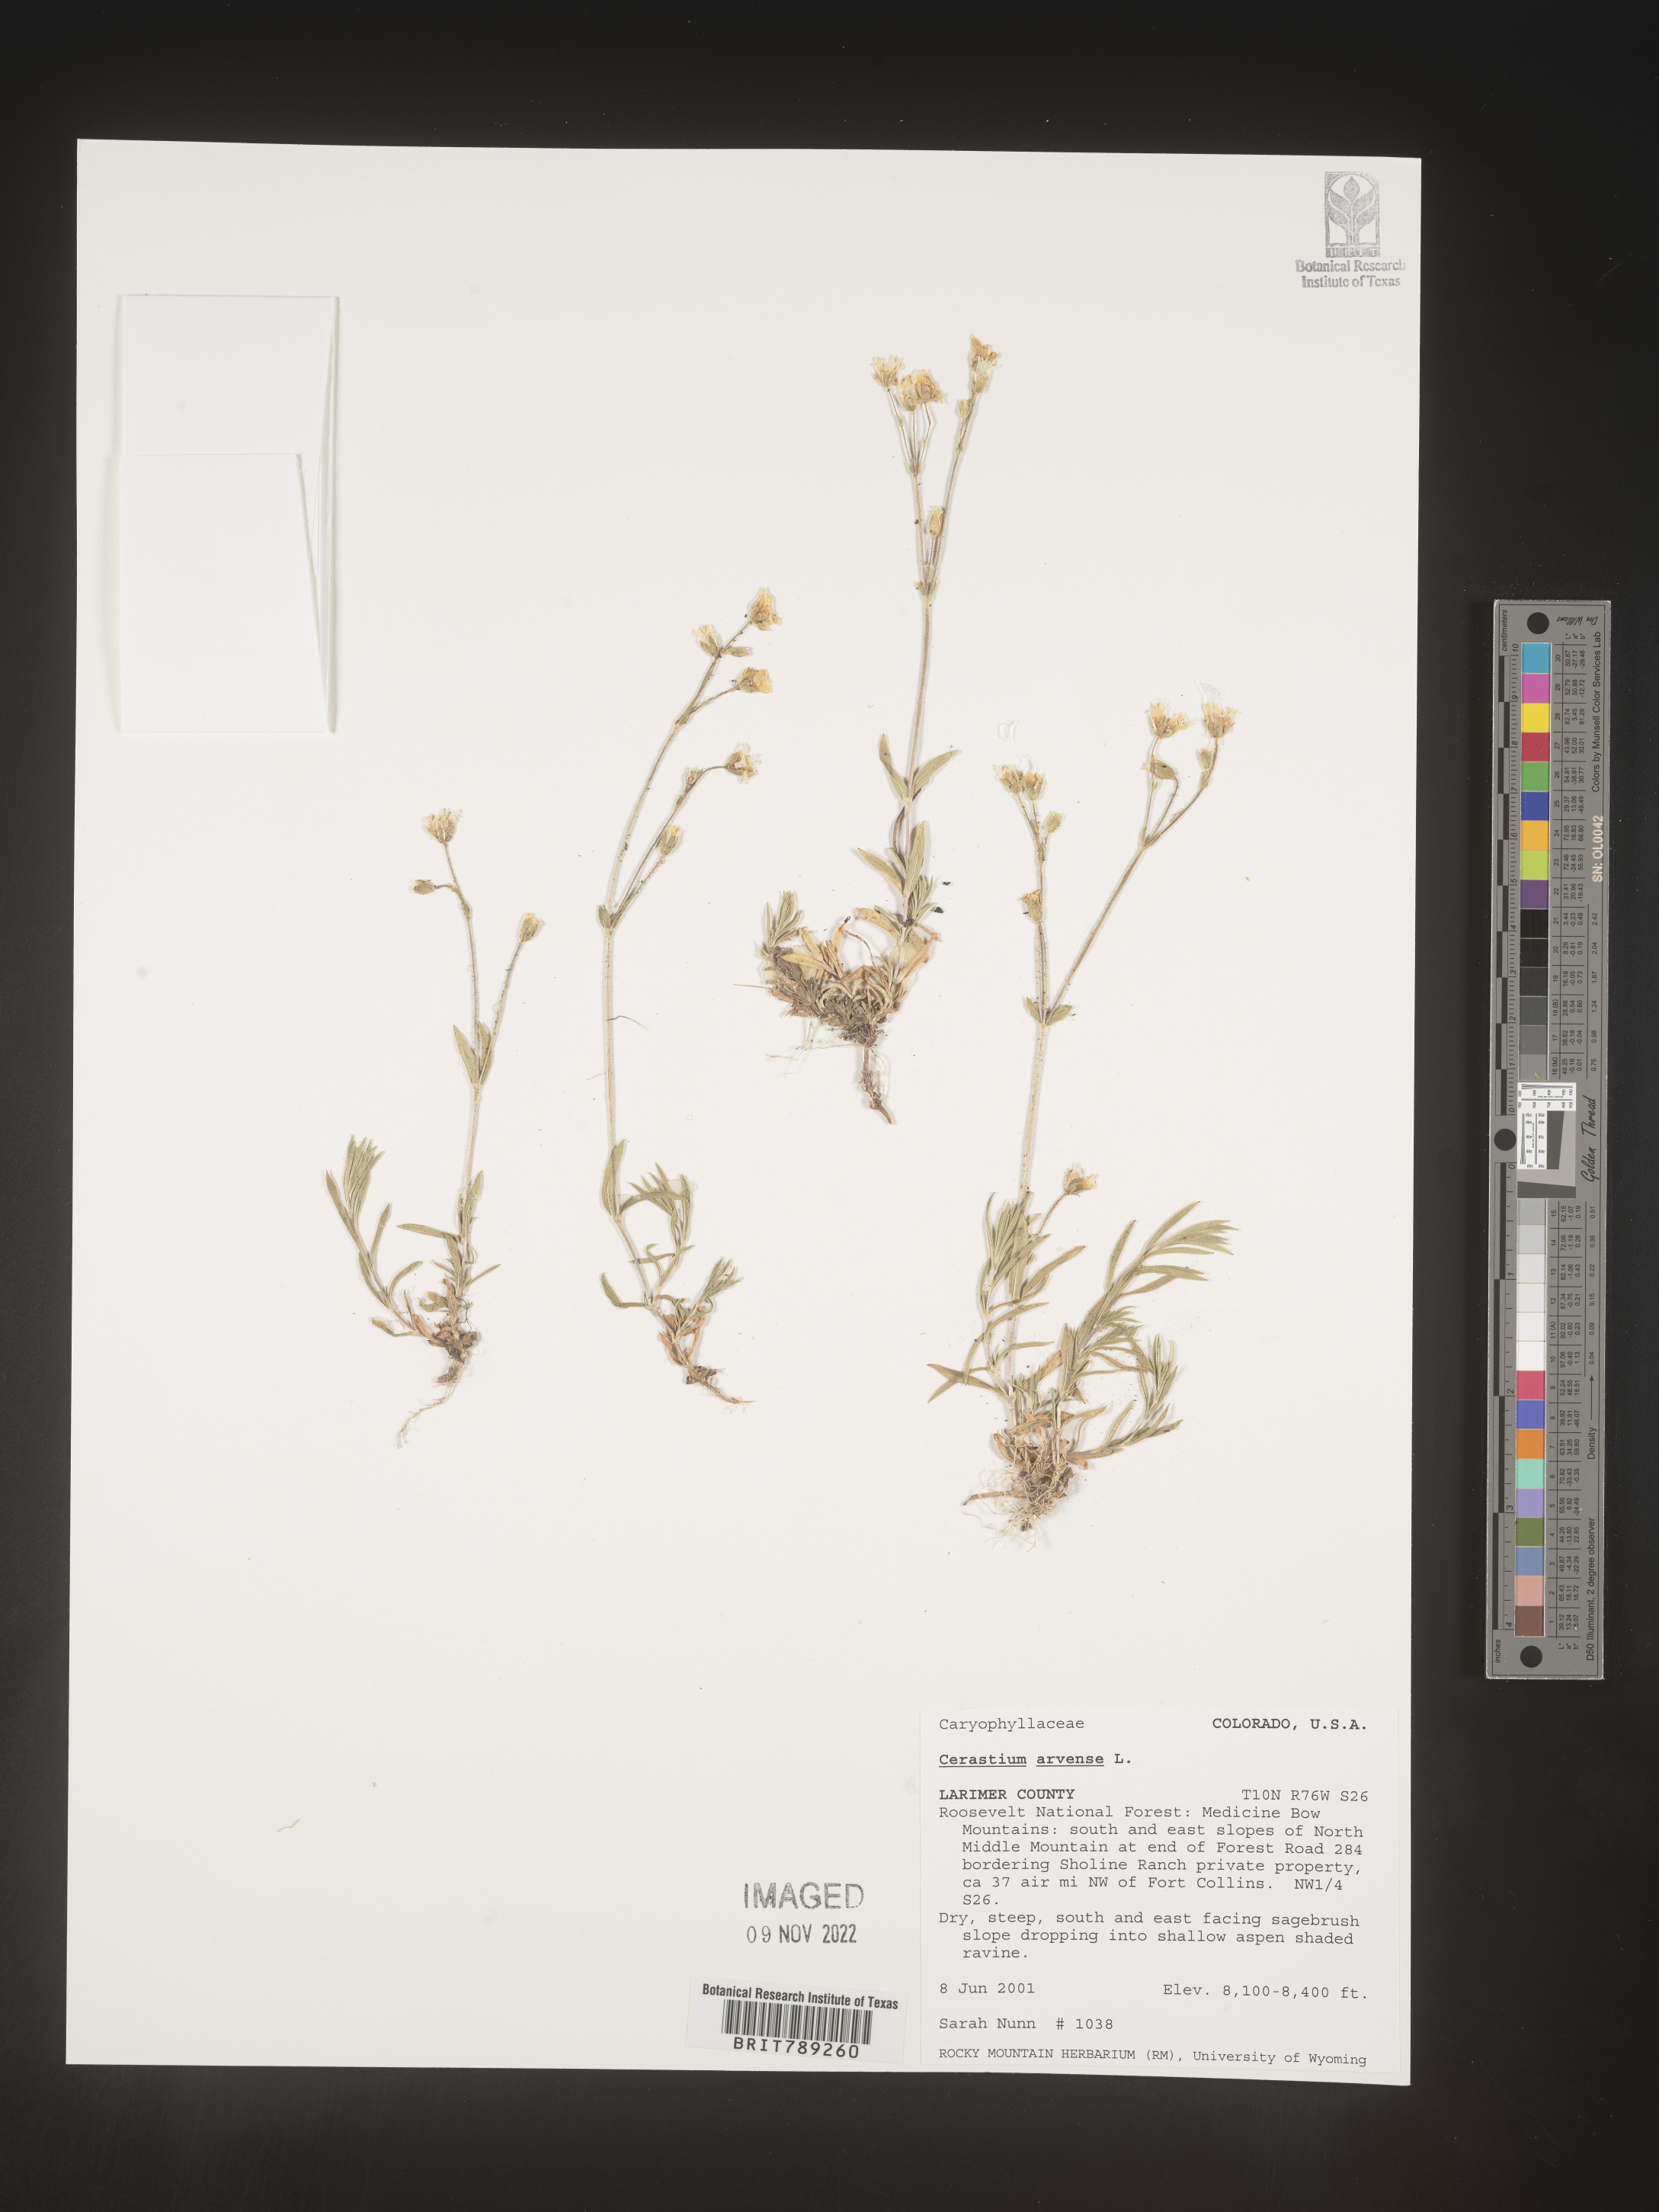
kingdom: Plantae
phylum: Tracheophyta
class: Magnoliopsida
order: Caryophyllales
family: Caryophyllaceae
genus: Cerastium
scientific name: Cerastium arvense
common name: Field mouse-ear
